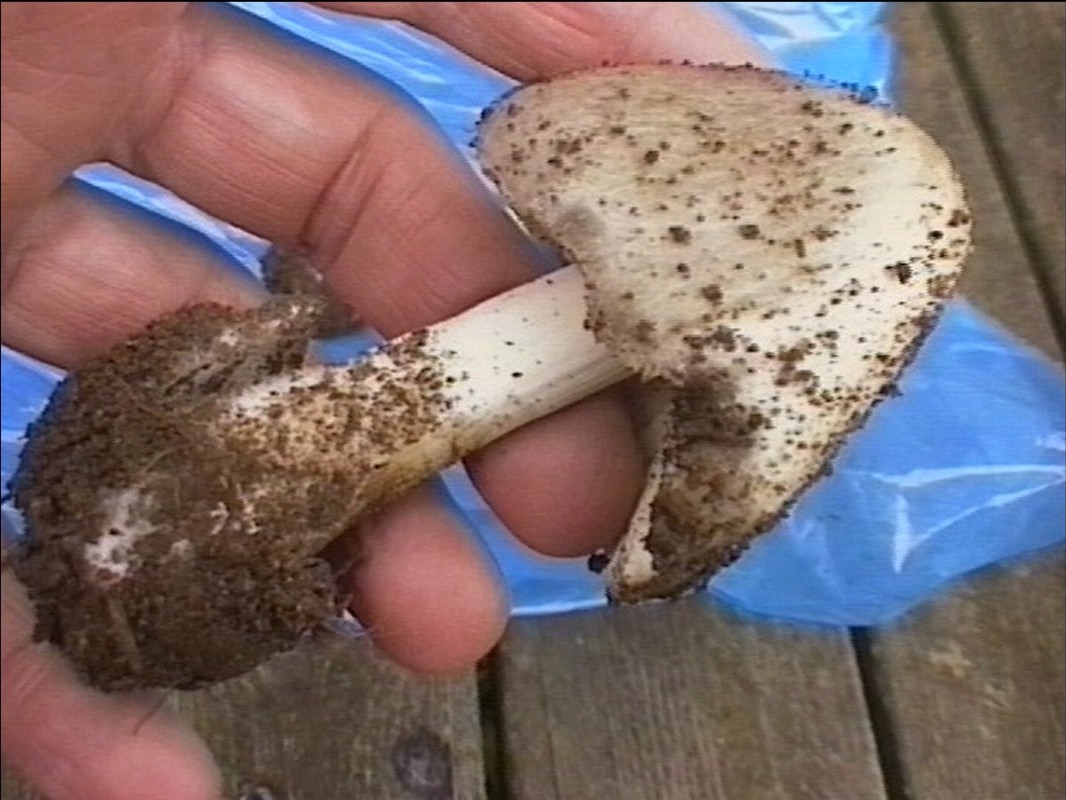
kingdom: Fungi
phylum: Basidiomycota
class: Agaricomycetes
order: Agaricales
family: Pluteaceae
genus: Volvopluteus
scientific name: Volvopluteus gloiocephalus
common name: høj posesvamp
